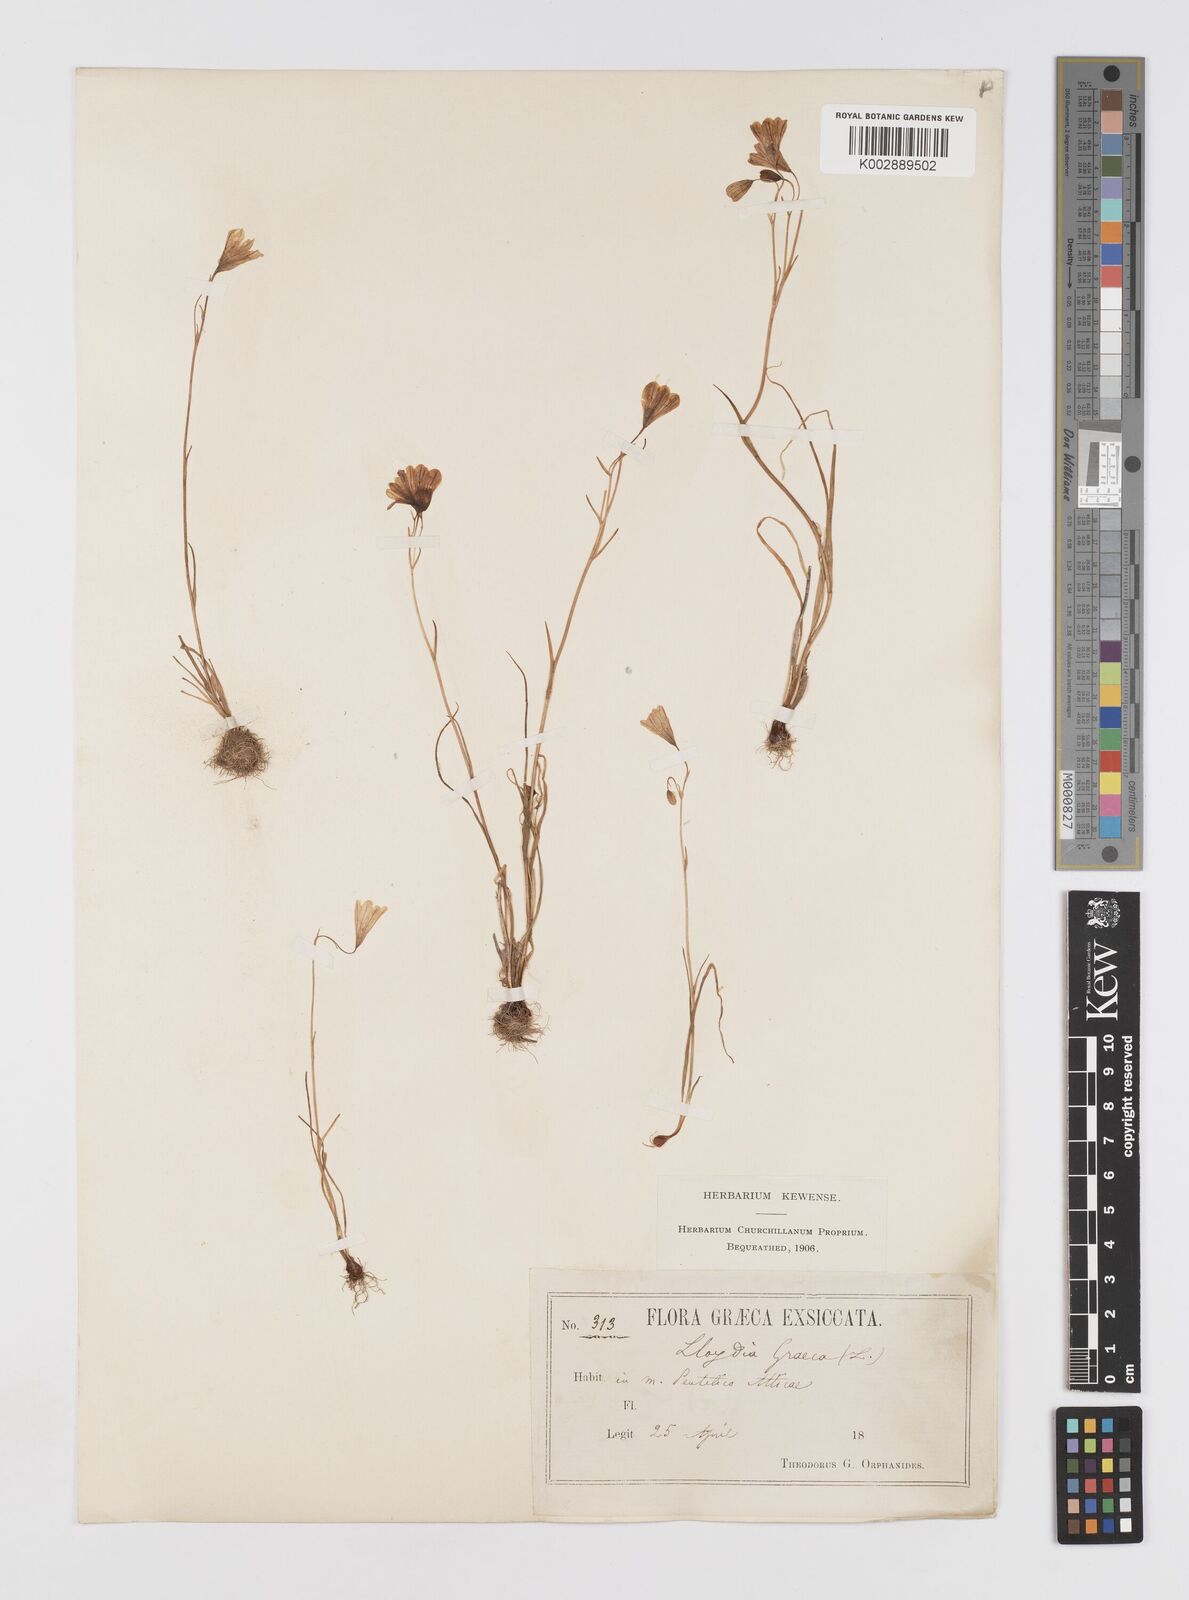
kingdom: Plantae
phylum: Tracheophyta
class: Liliopsida
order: Liliales
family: Liliaceae
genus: Gagea
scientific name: Gagea graeca
